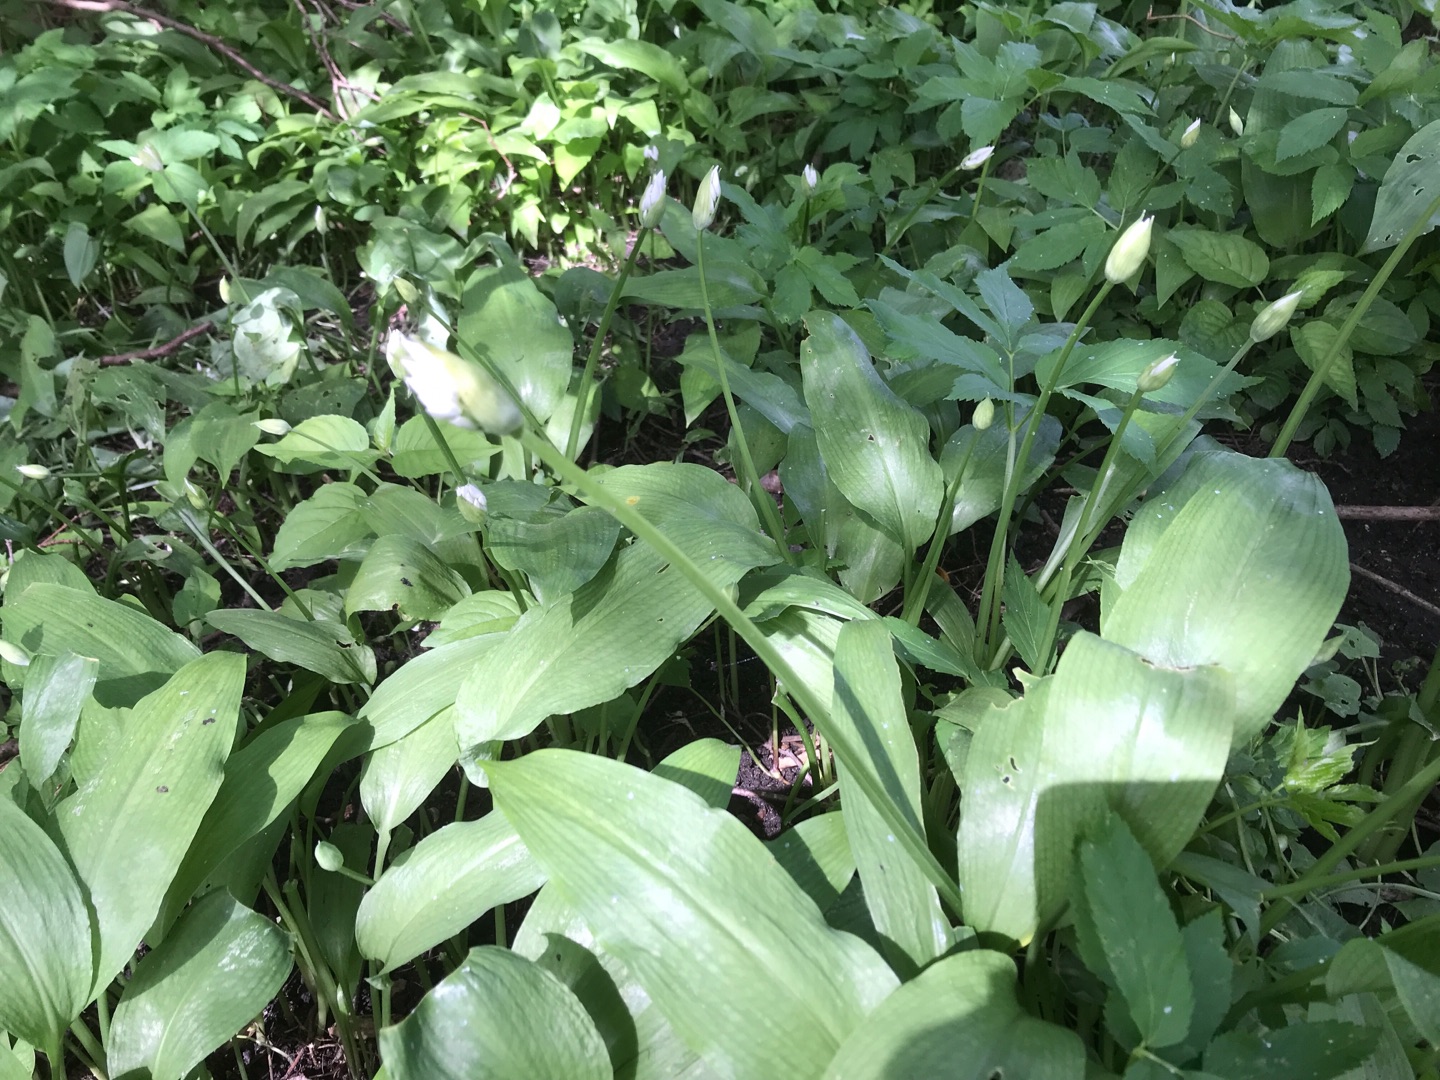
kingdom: Plantae
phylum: Tracheophyta
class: Liliopsida
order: Asparagales
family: Amaryllidaceae
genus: Allium
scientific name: Allium ursinum
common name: Rams-løg
